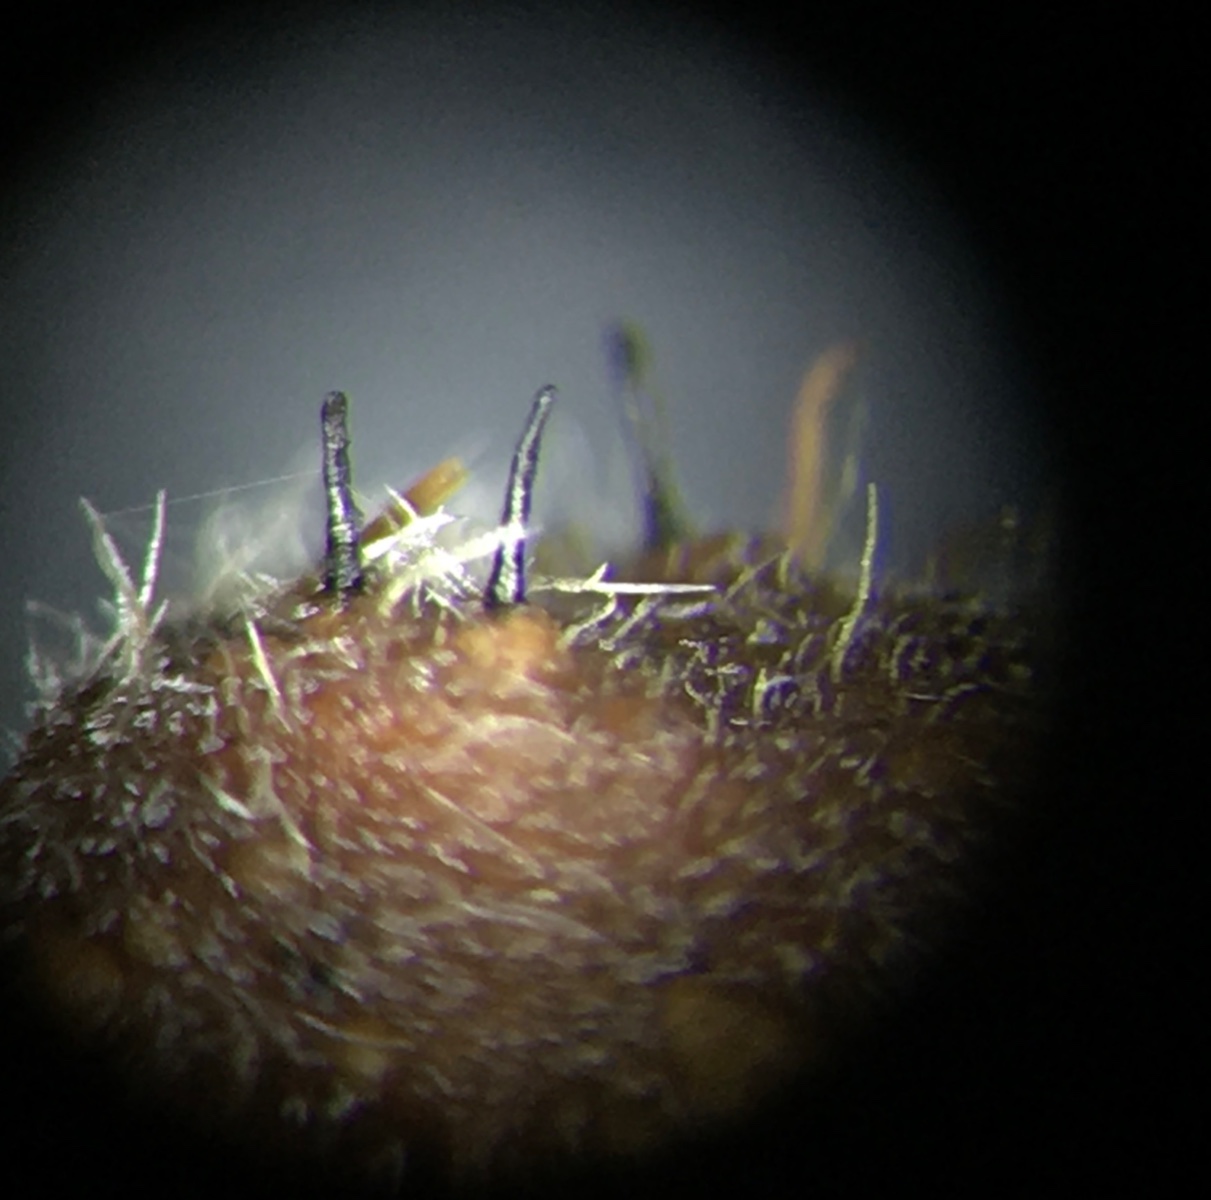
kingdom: Fungi
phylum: Ascomycota
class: Sordariomycetes
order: Diaporthales
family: Gnomoniaceae
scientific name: Gnomoniaceae
